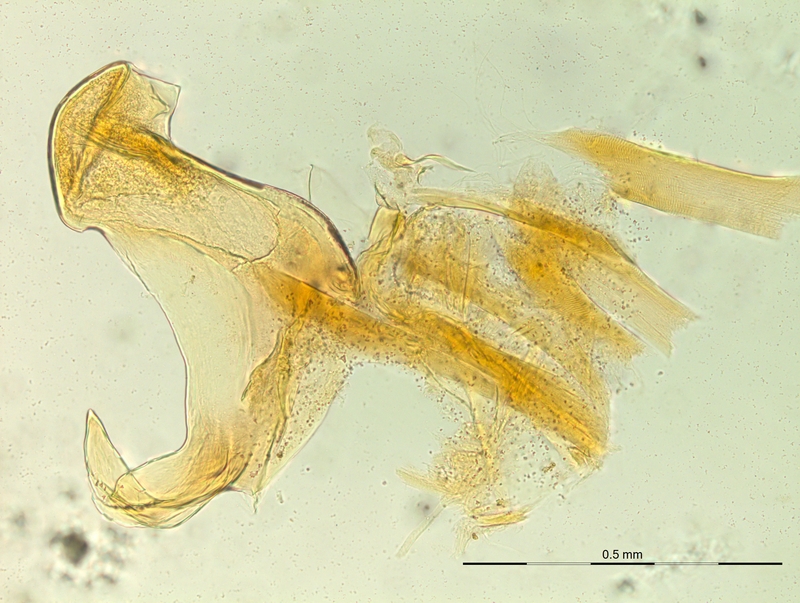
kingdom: Animalia
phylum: Arthropoda
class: Diplopoda
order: Chordeumatida
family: Craspedosomatidae
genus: Rhymogona
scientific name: Rhymogona montivaga
